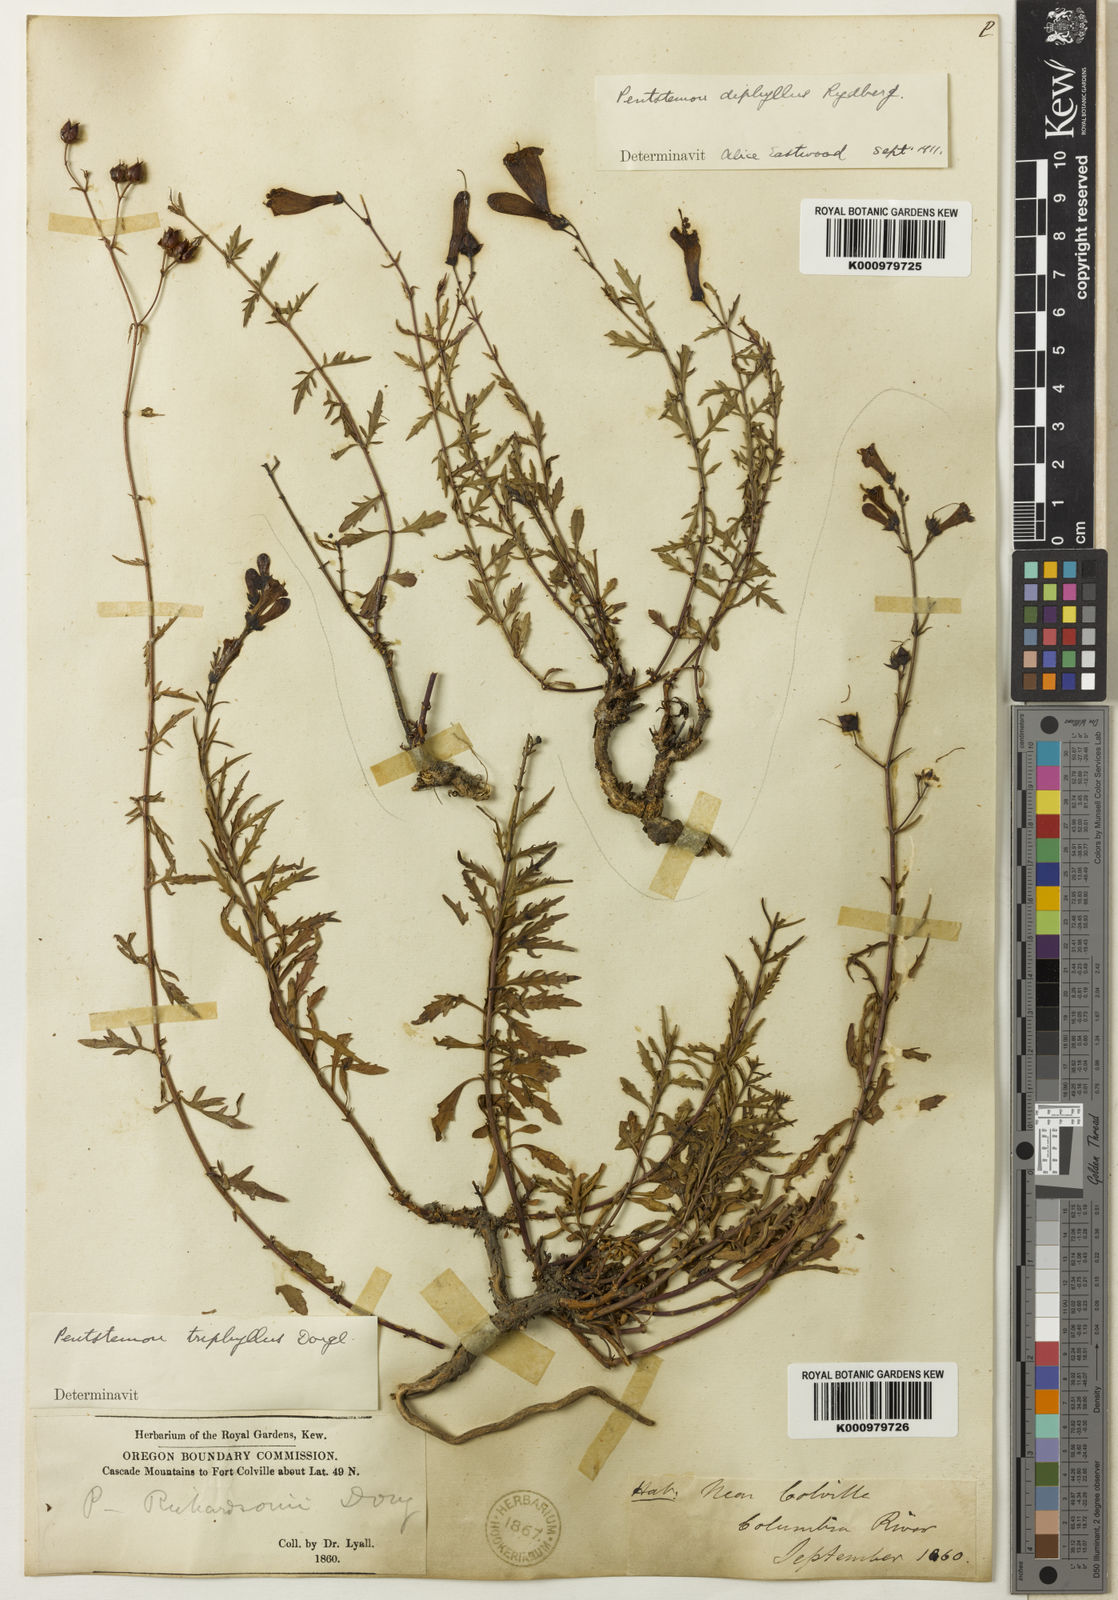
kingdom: Plantae
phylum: Tracheophyta
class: Magnoliopsida
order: Lamiales
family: Plantaginaceae
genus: Penstemon
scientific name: Penstemon triphyllus
